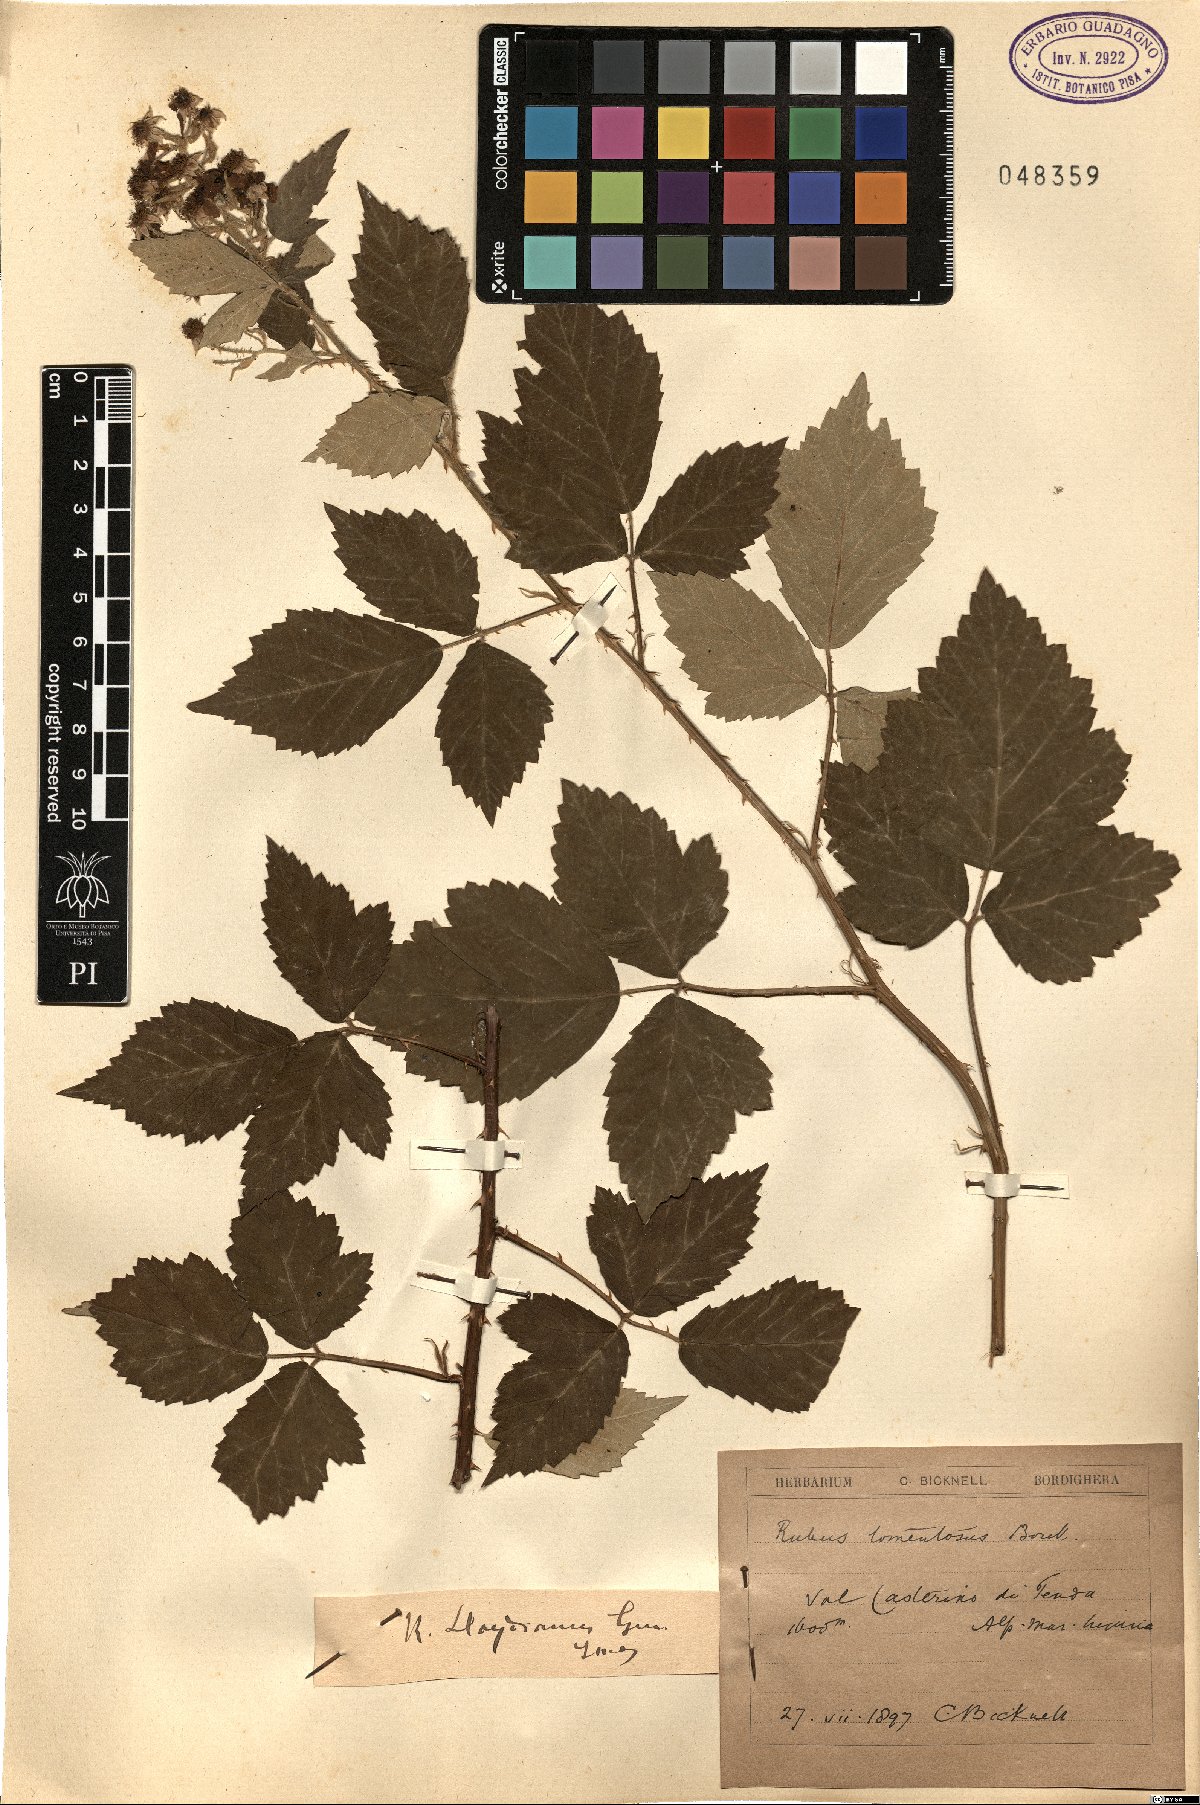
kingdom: Plantae
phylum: Tracheophyta
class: Magnoliopsida
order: Rosales
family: Rosaceae
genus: Rubus
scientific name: Rubus aetnicus
